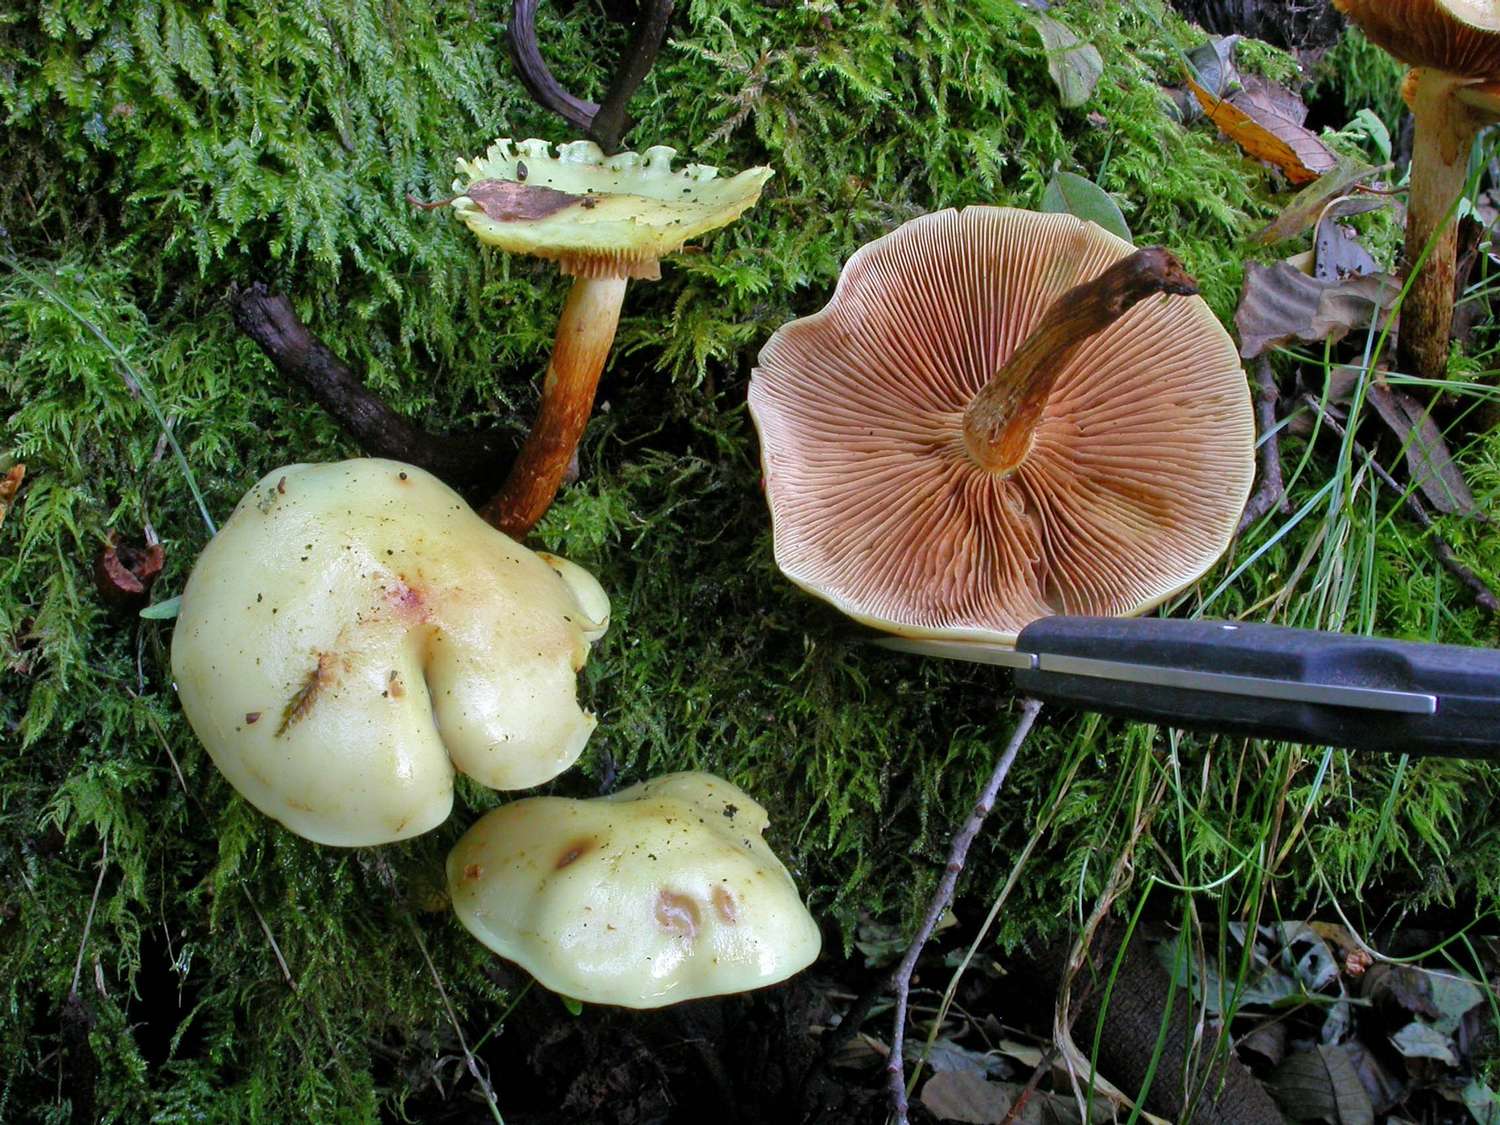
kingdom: Fungi
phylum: Basidiomycota
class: Agaricomycetes
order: Agaricales
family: Hymenogastraceae
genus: Flammula
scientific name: Flammula alnicola
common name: elle-skælhat
